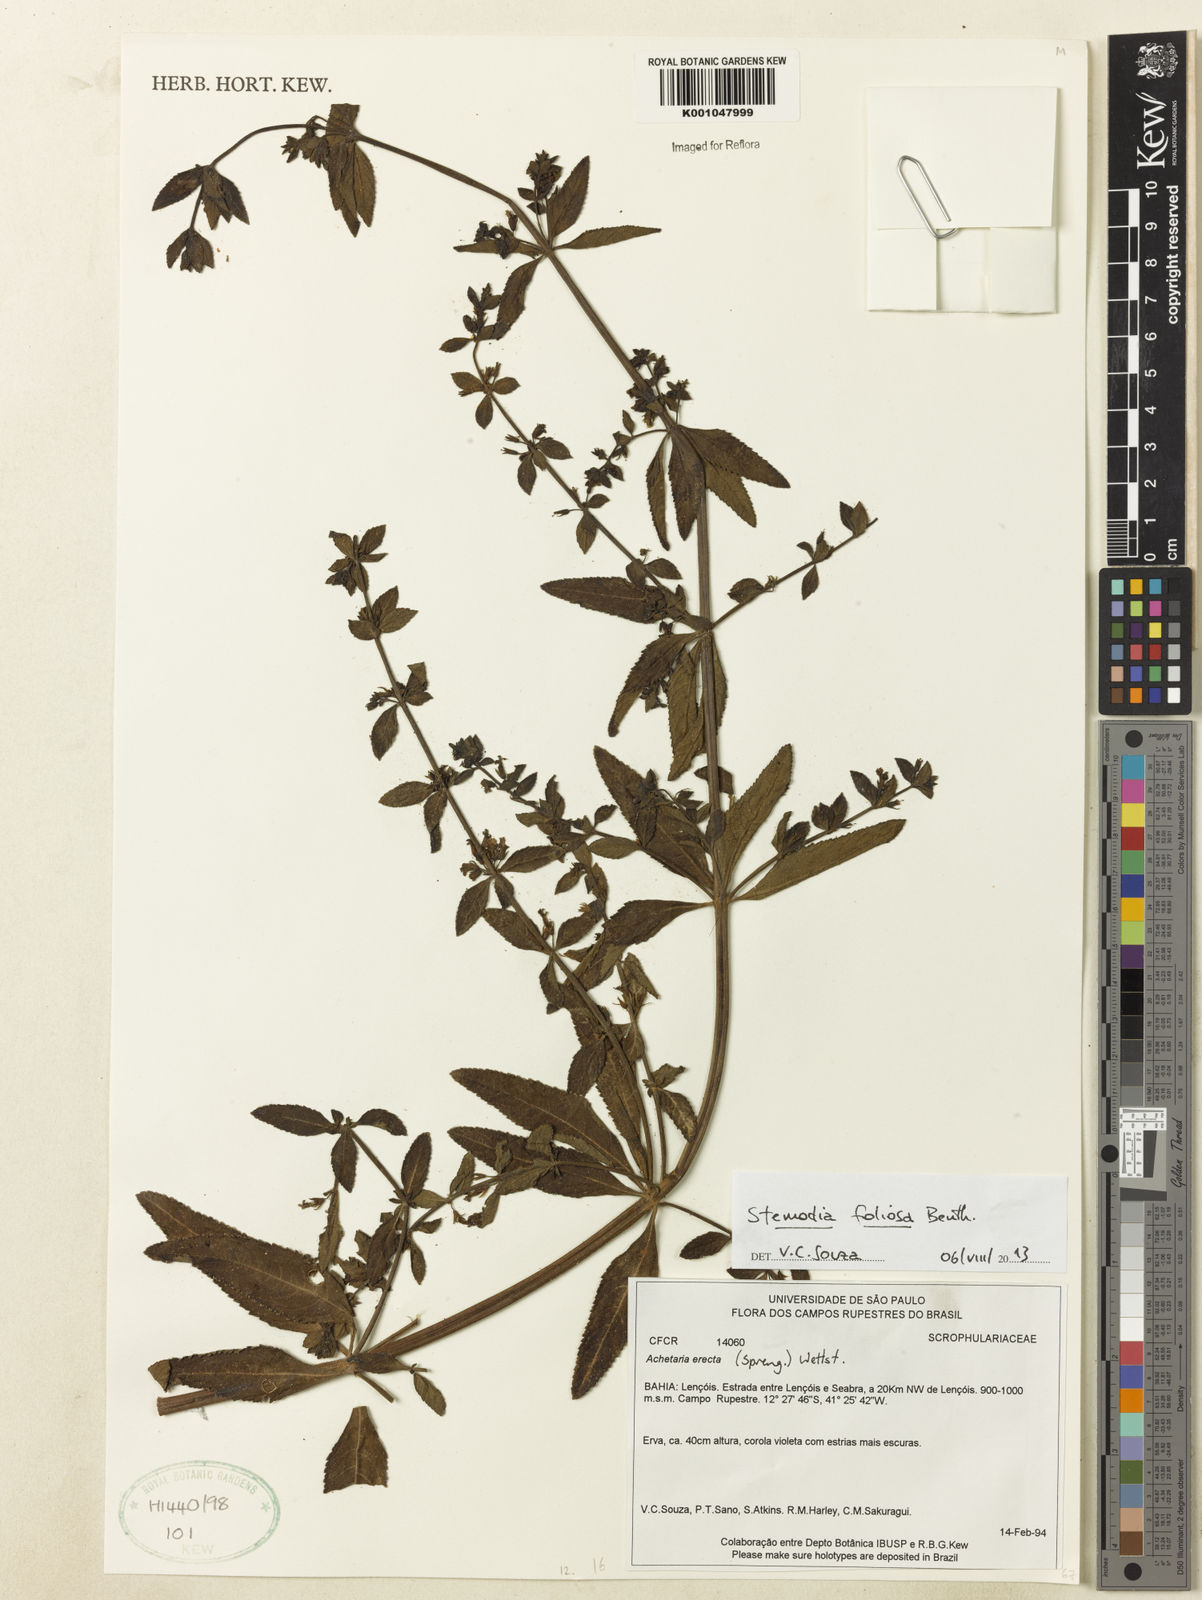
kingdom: Plantae
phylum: Tracheophyta
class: Magnoliopsida
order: Lamiales
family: Plantaginaceae
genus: Stemodia
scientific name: Stemodia foliosa
